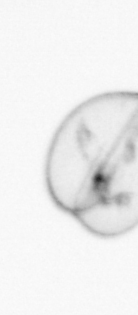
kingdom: Chromista
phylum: Myzozoa
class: Dinophyceae
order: Noctilucales
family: Noctilucaceae
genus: Noctiluca
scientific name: Noctiluca scintillans
